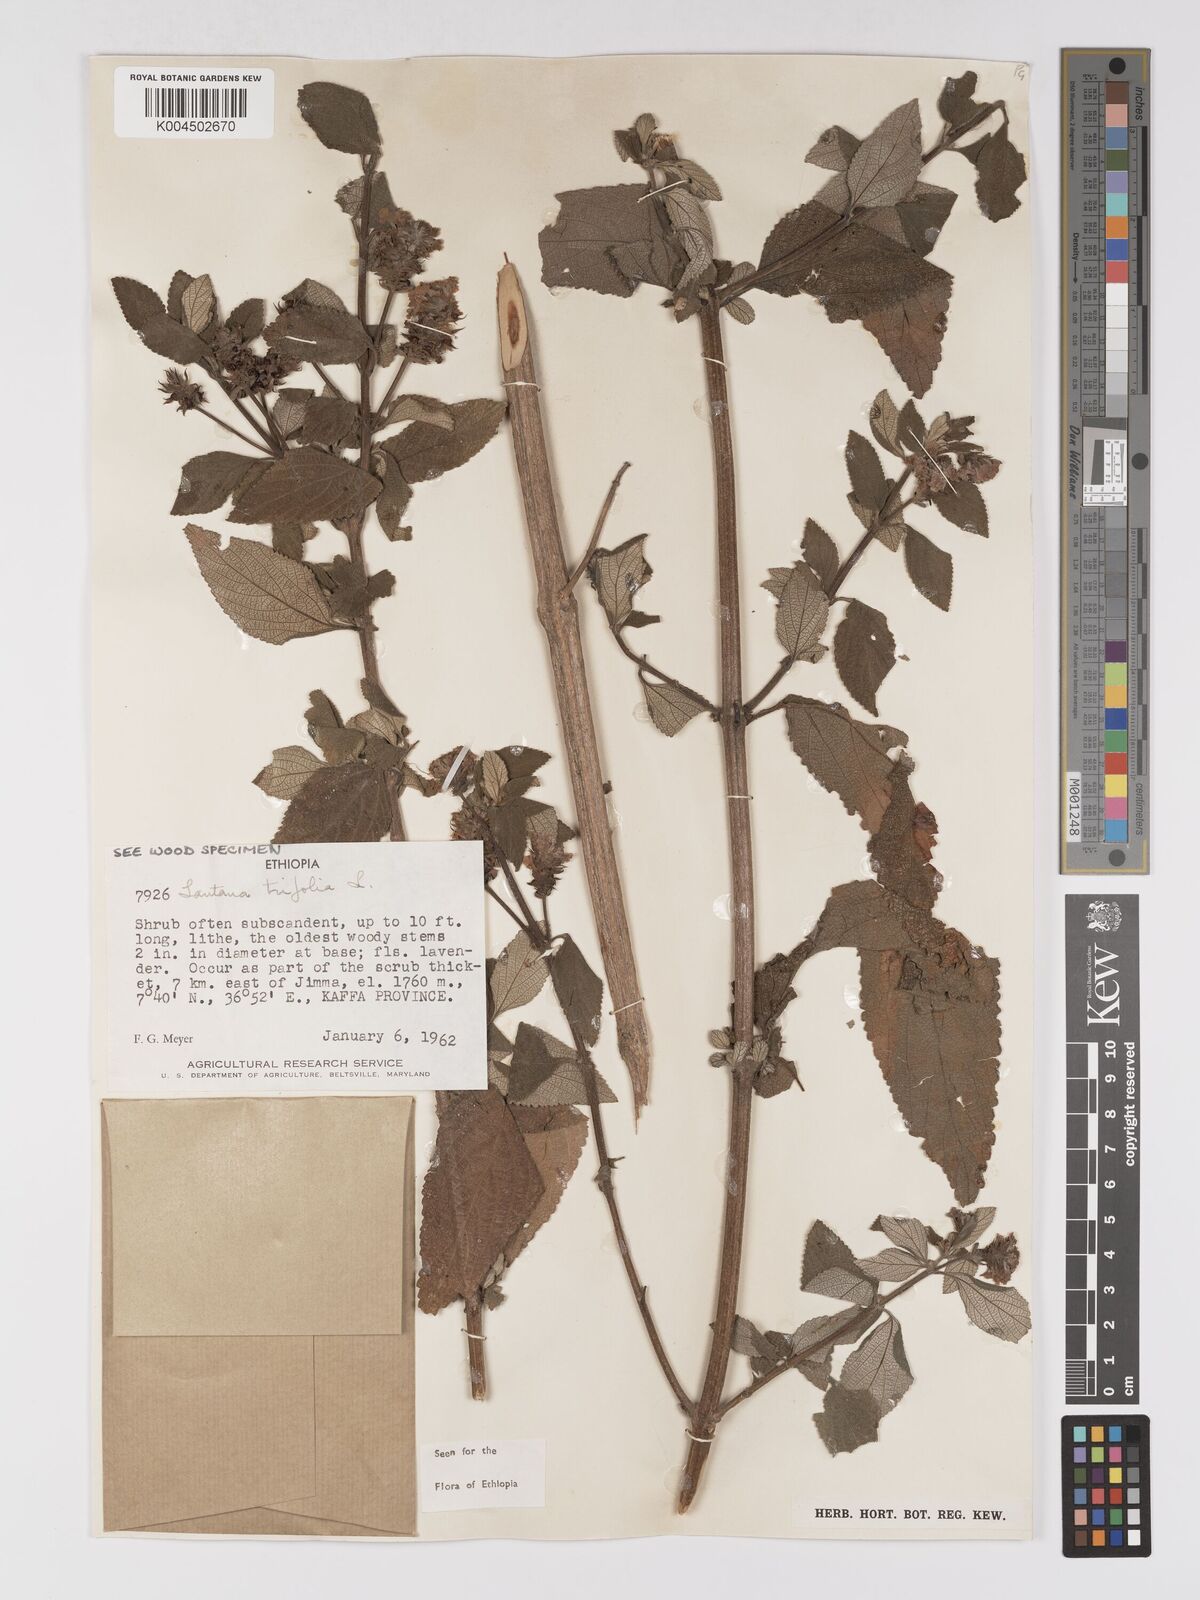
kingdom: Plantae
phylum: Tracheophyta
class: Magnoliopsida
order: Lamiales
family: Verbenaceae
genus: Lantana
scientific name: Lantana trifolia
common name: Sweet-sage
